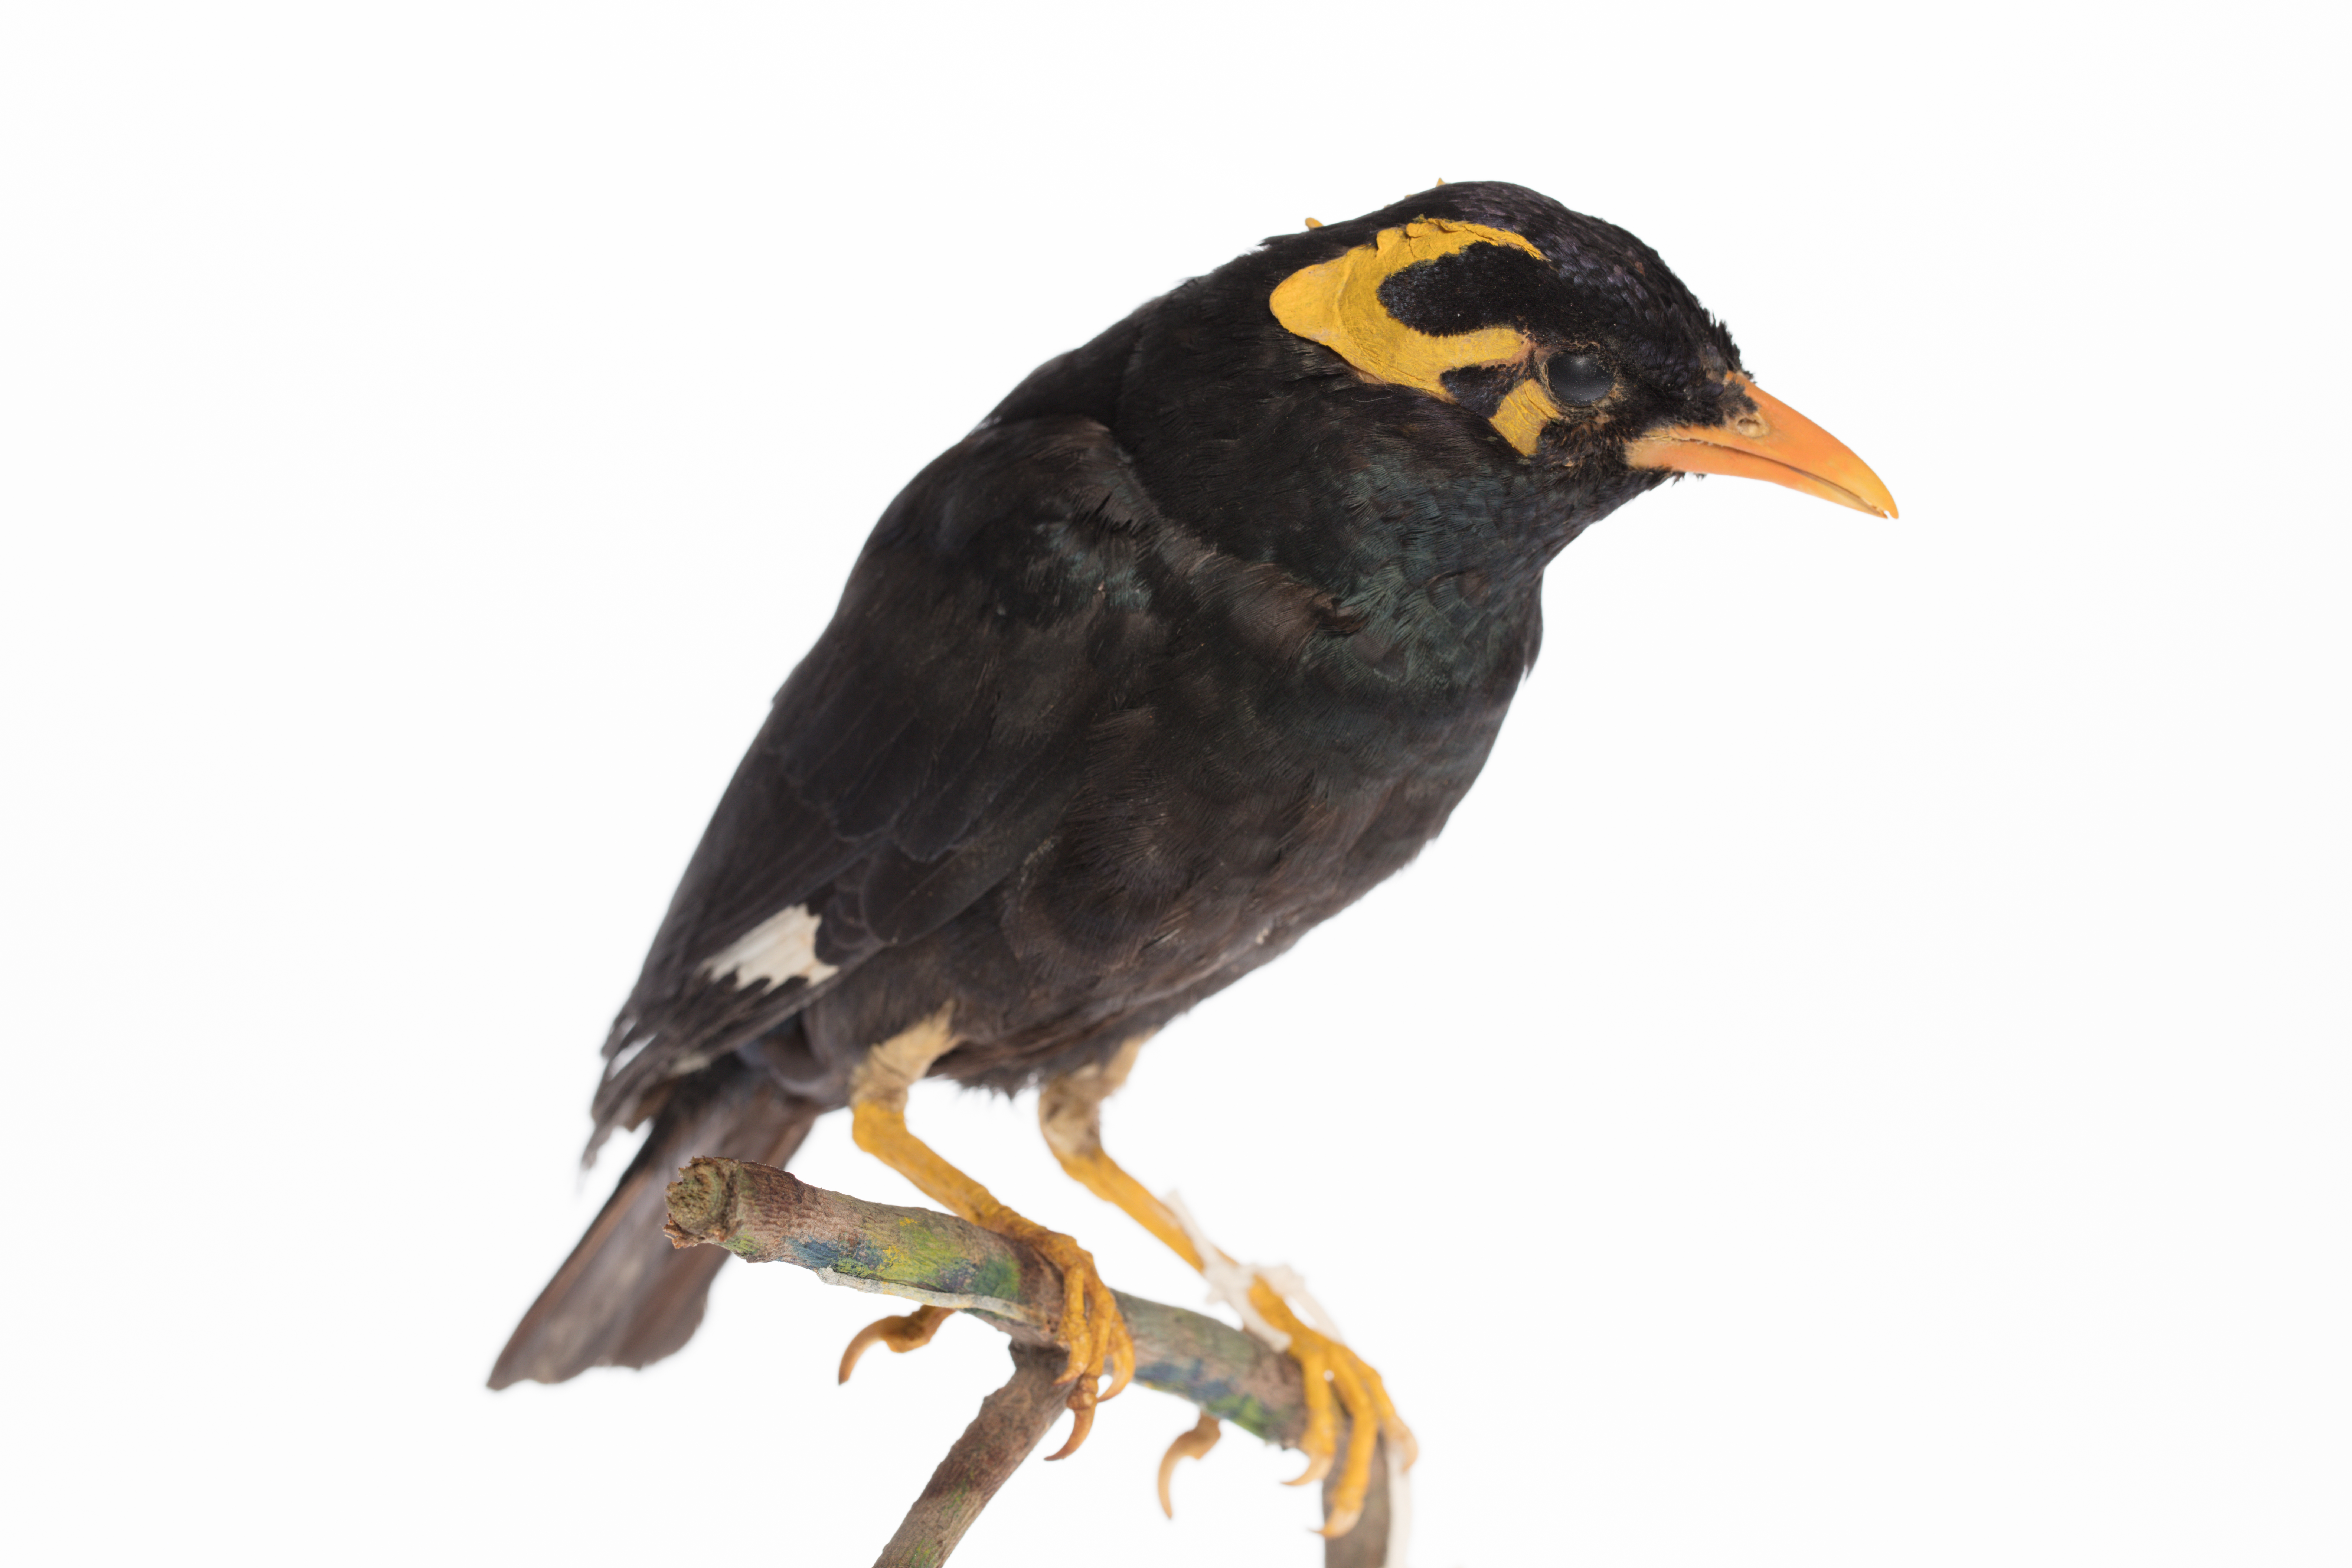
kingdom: Animalia
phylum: Chordata
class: Aves
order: Passeriformes
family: Sturnidae
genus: Gracula
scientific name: Gracula religiosa
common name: Common hill myna
